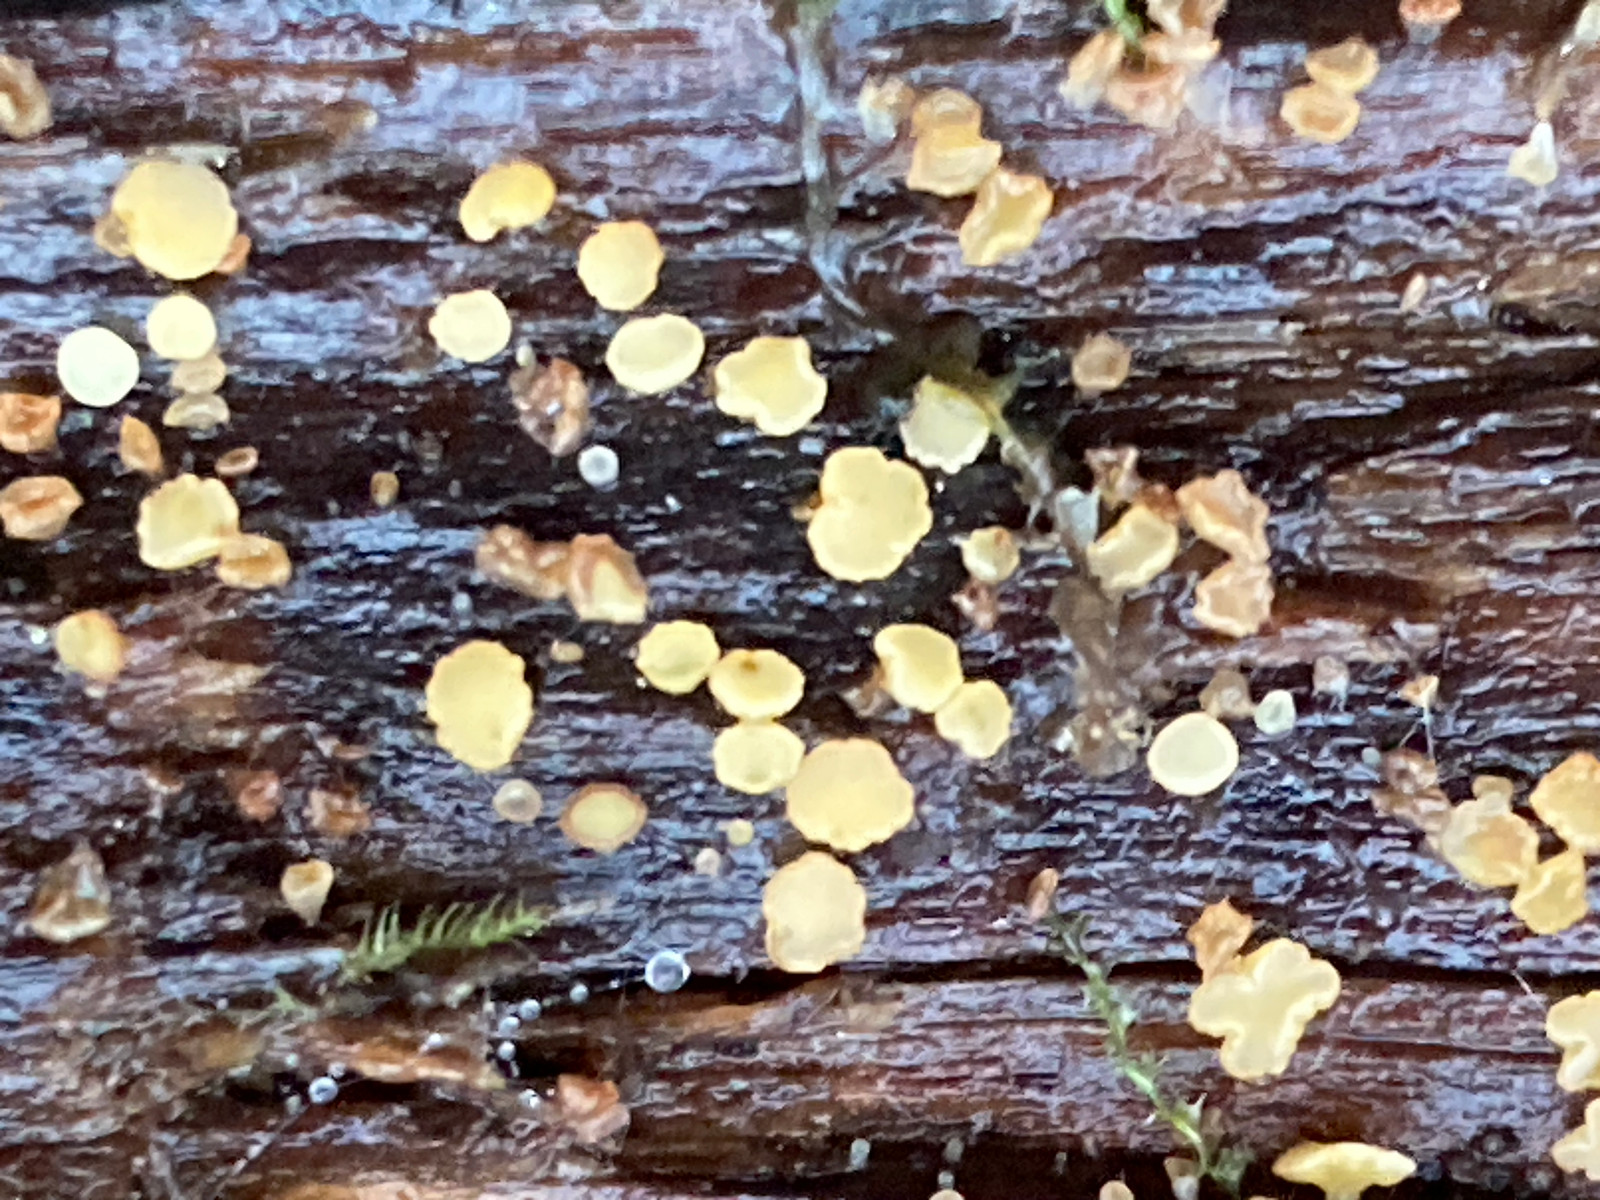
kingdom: Fungi
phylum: Ascomycota
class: Leotiomycetes
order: Helotiales
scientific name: Helotiales
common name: stilkskiveordenen
